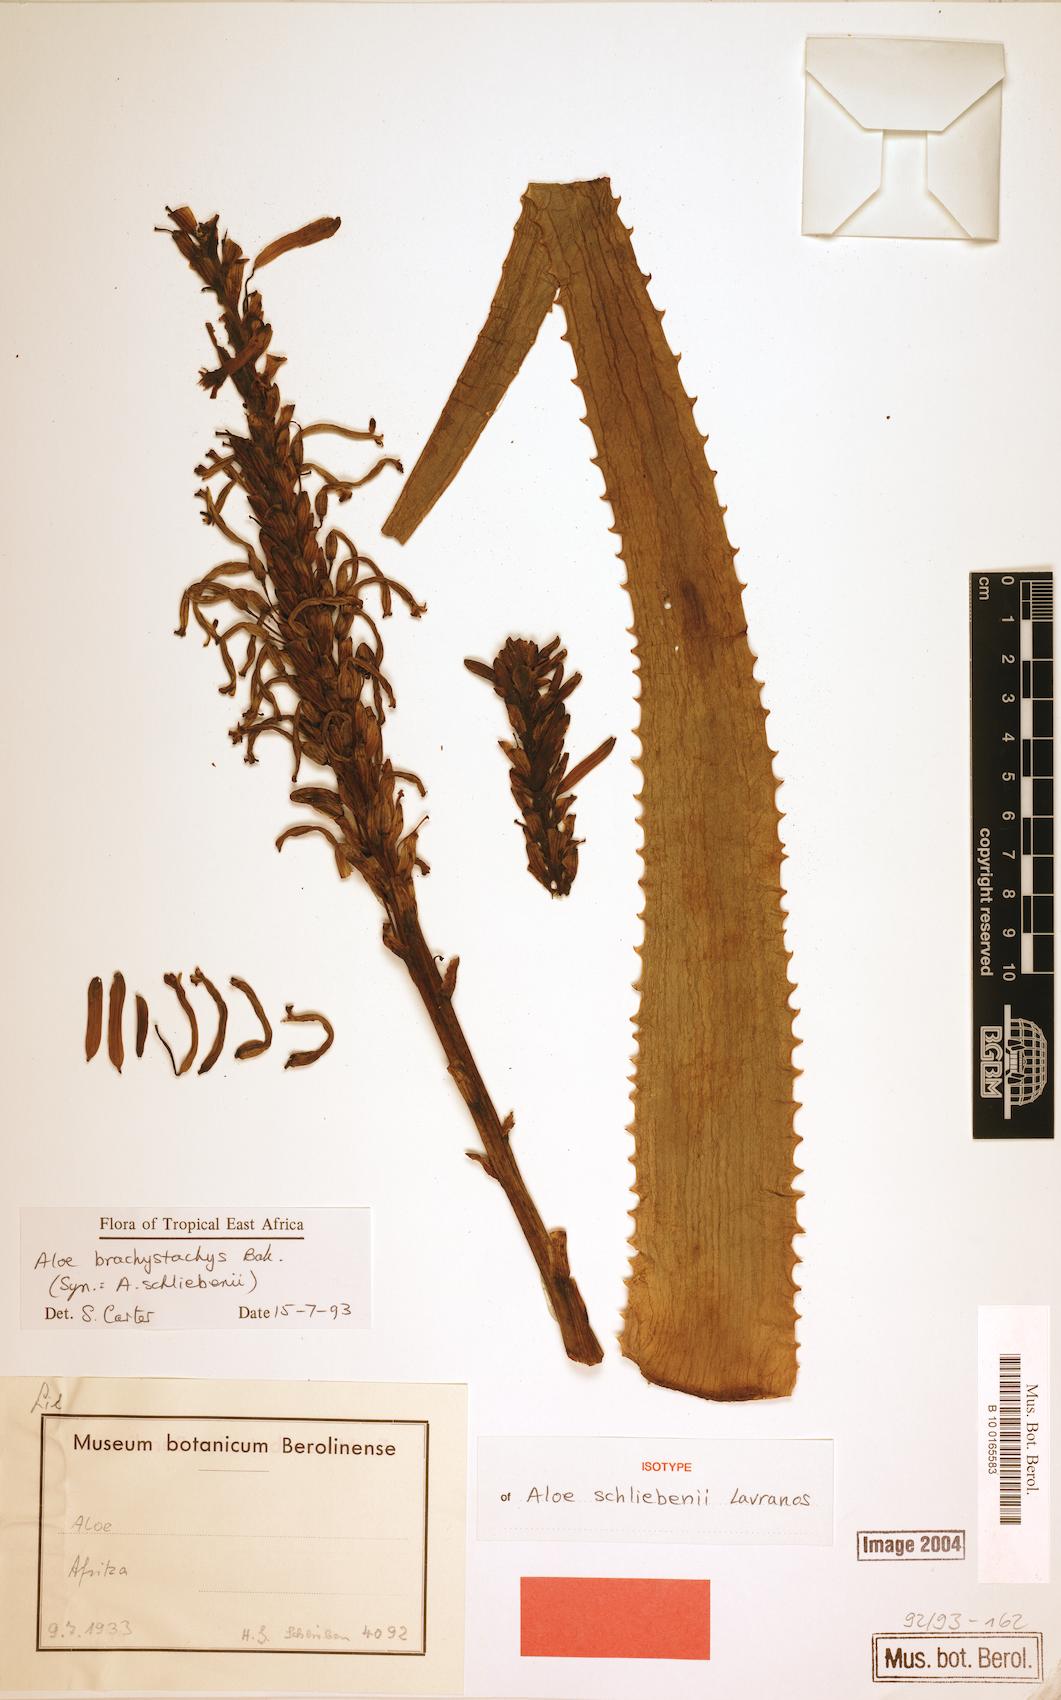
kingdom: Plantae
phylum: Tracheophyta
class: Liliopsida
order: Asparagales
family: Asphodelaceae
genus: Aloe
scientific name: Aloe brachystachys
